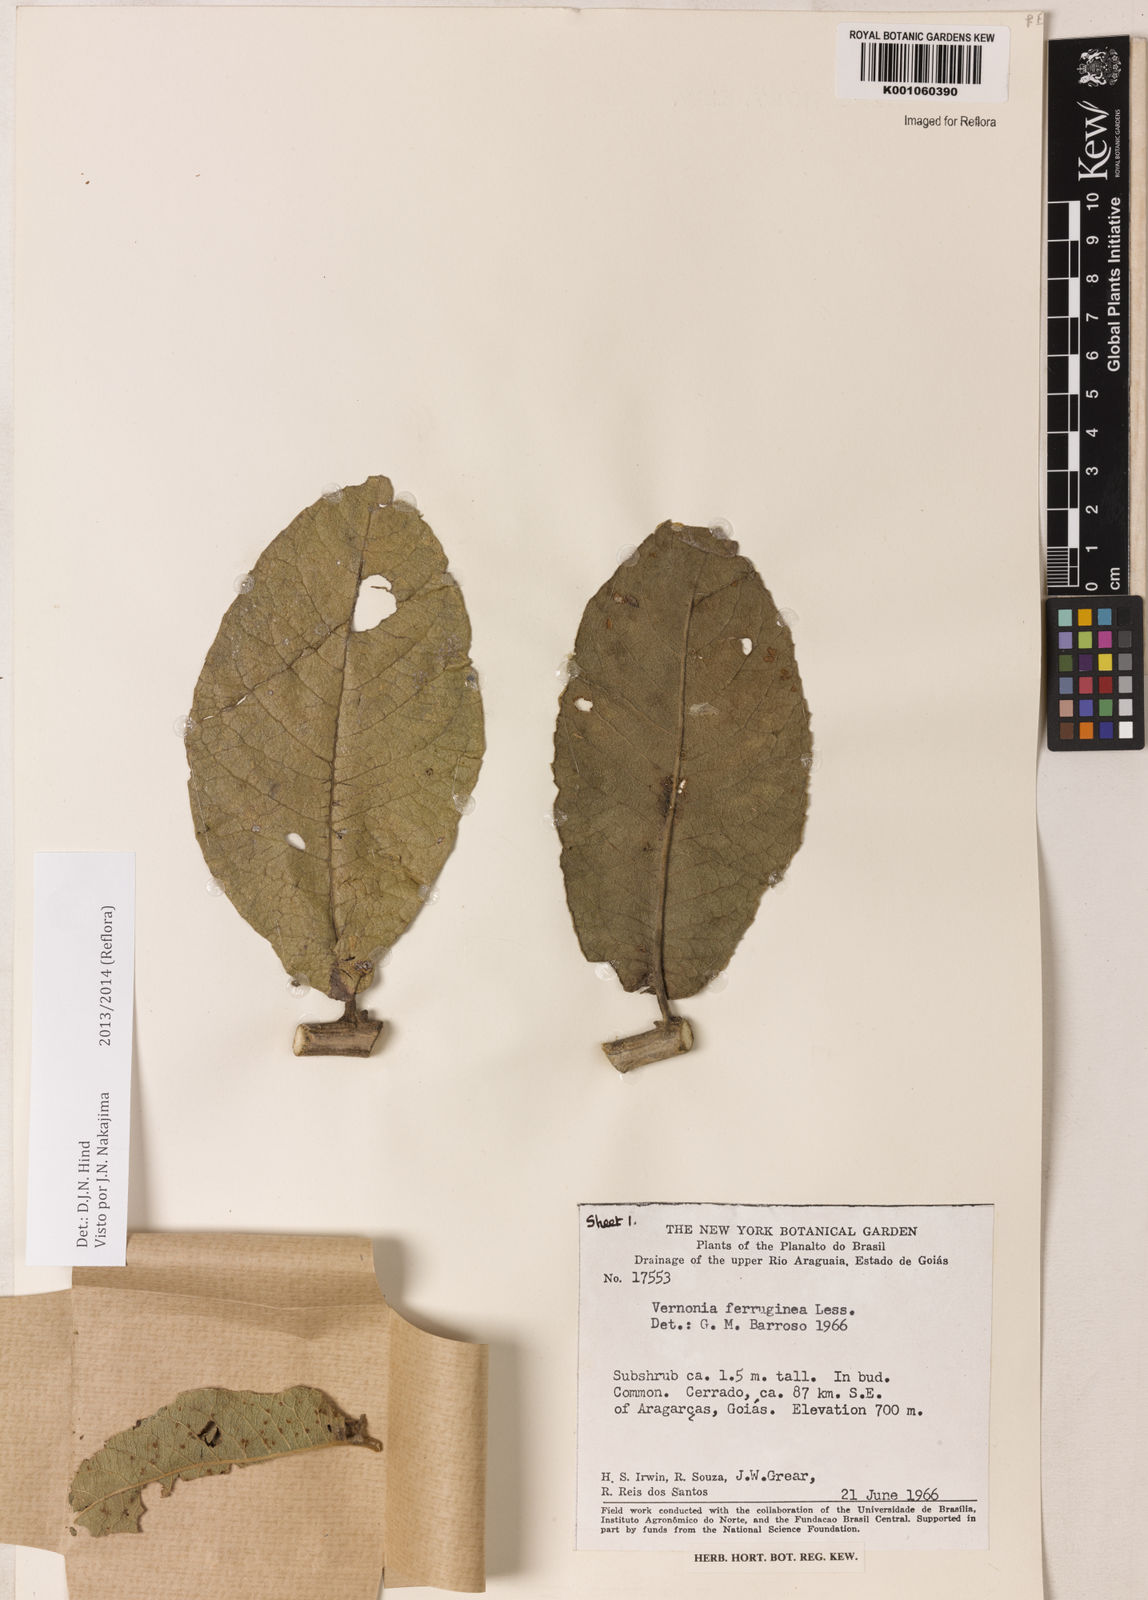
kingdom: Plantae
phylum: Tracheophyta
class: Magnoliopsida
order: Asterales
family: Asteraceae
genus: Vernonanthura
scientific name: Vernonanthura ferruginea
